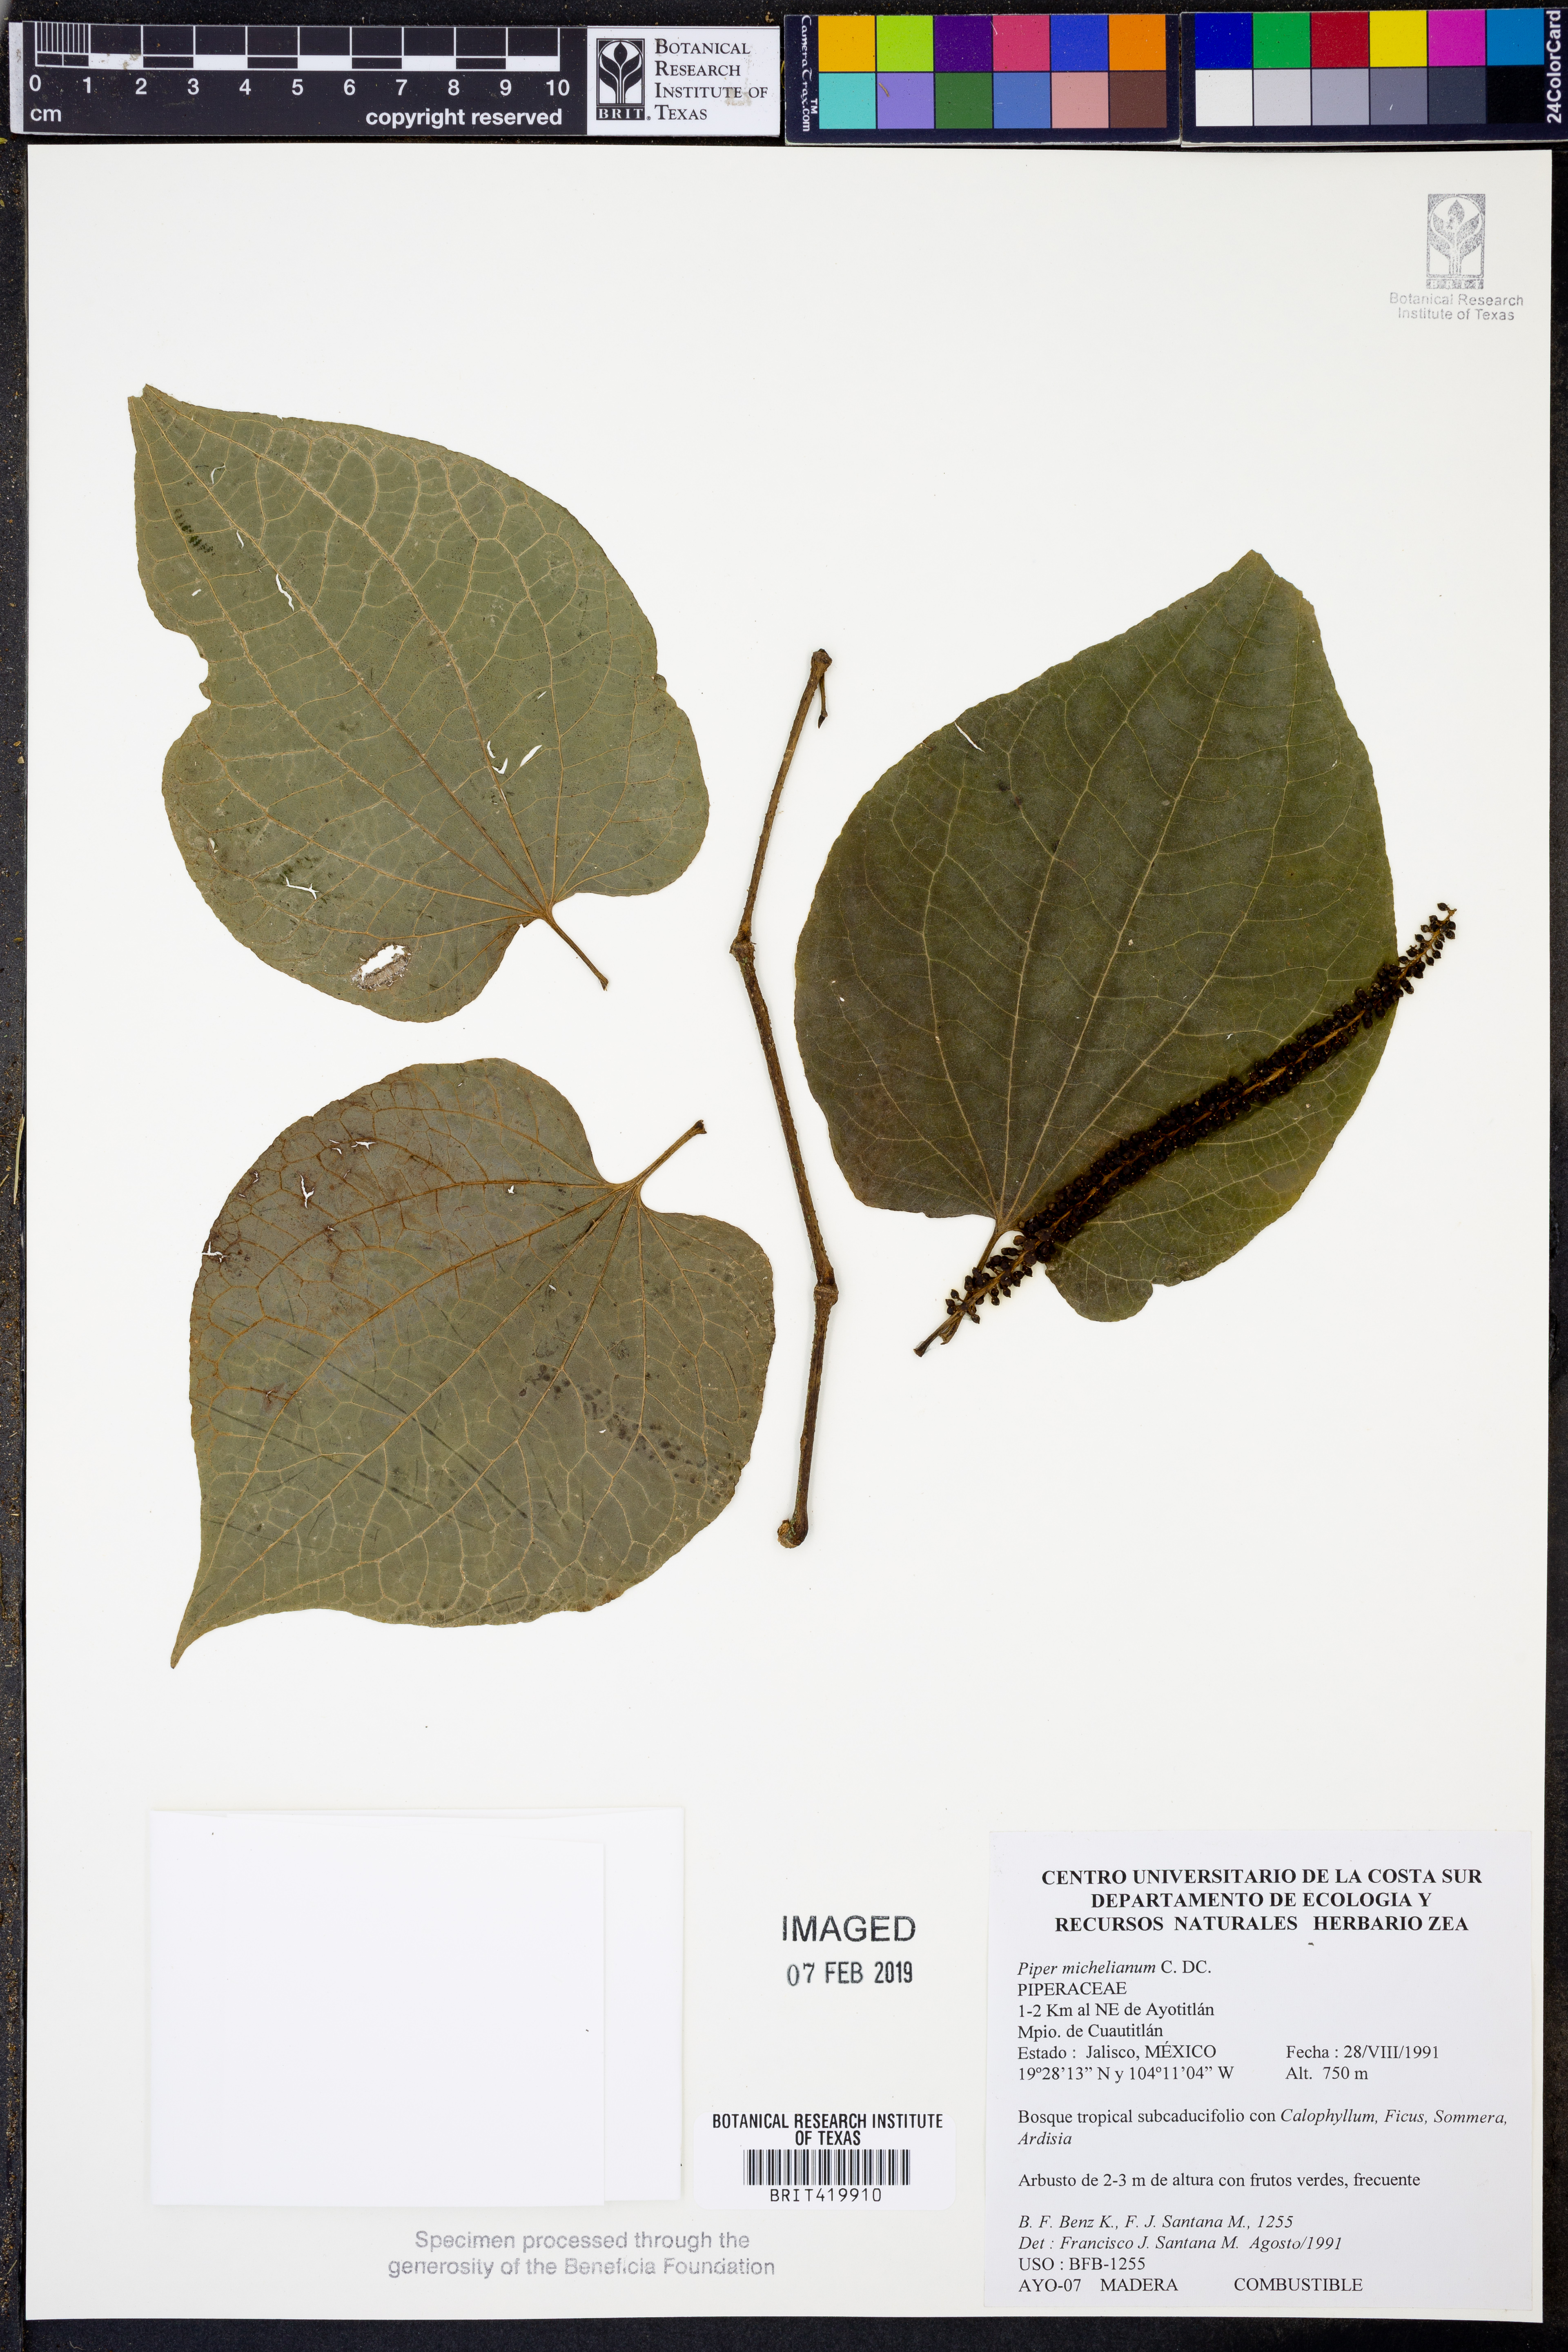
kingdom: Plantae
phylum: Tracheophyta
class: Magnoliopsida
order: Piperales
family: Piperaceae
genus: Piper
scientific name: Piper michelianum
